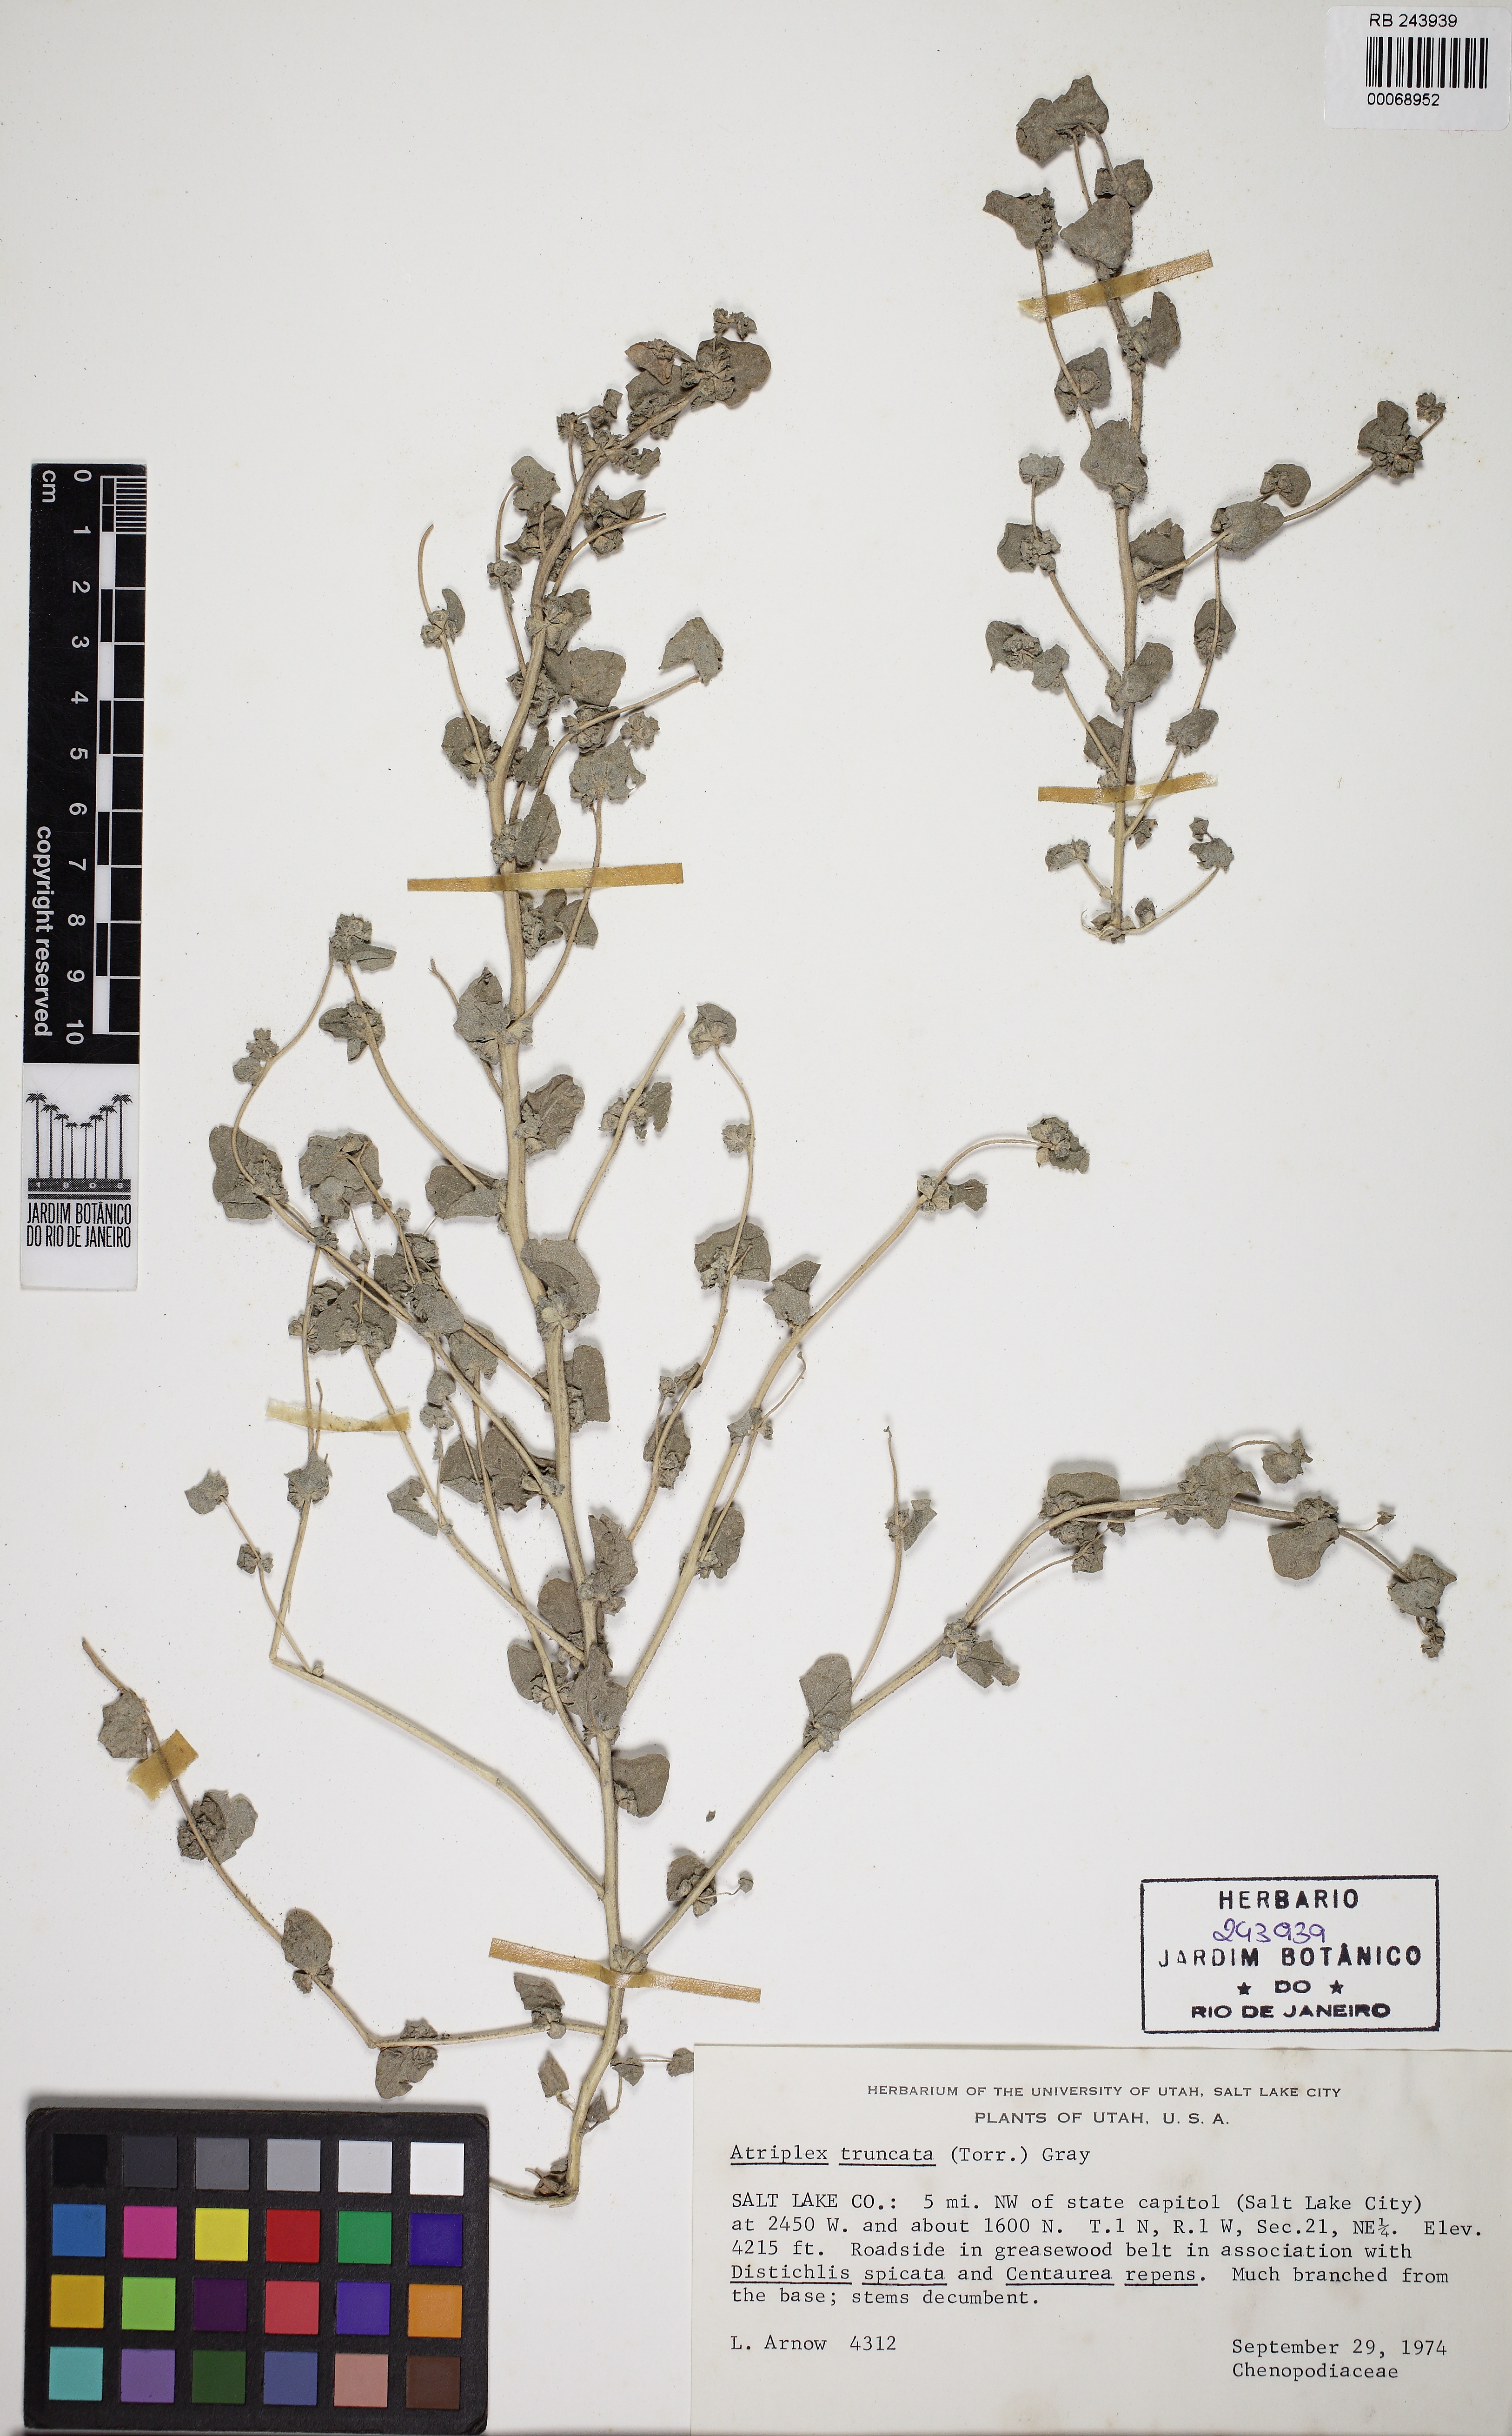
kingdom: Plantae
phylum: Tracheophyta
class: Magnoliopsida
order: Caryophyllales
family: Amaranthaceae
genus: Atriplex
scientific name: Atriplex truncata
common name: Wedge-orach
